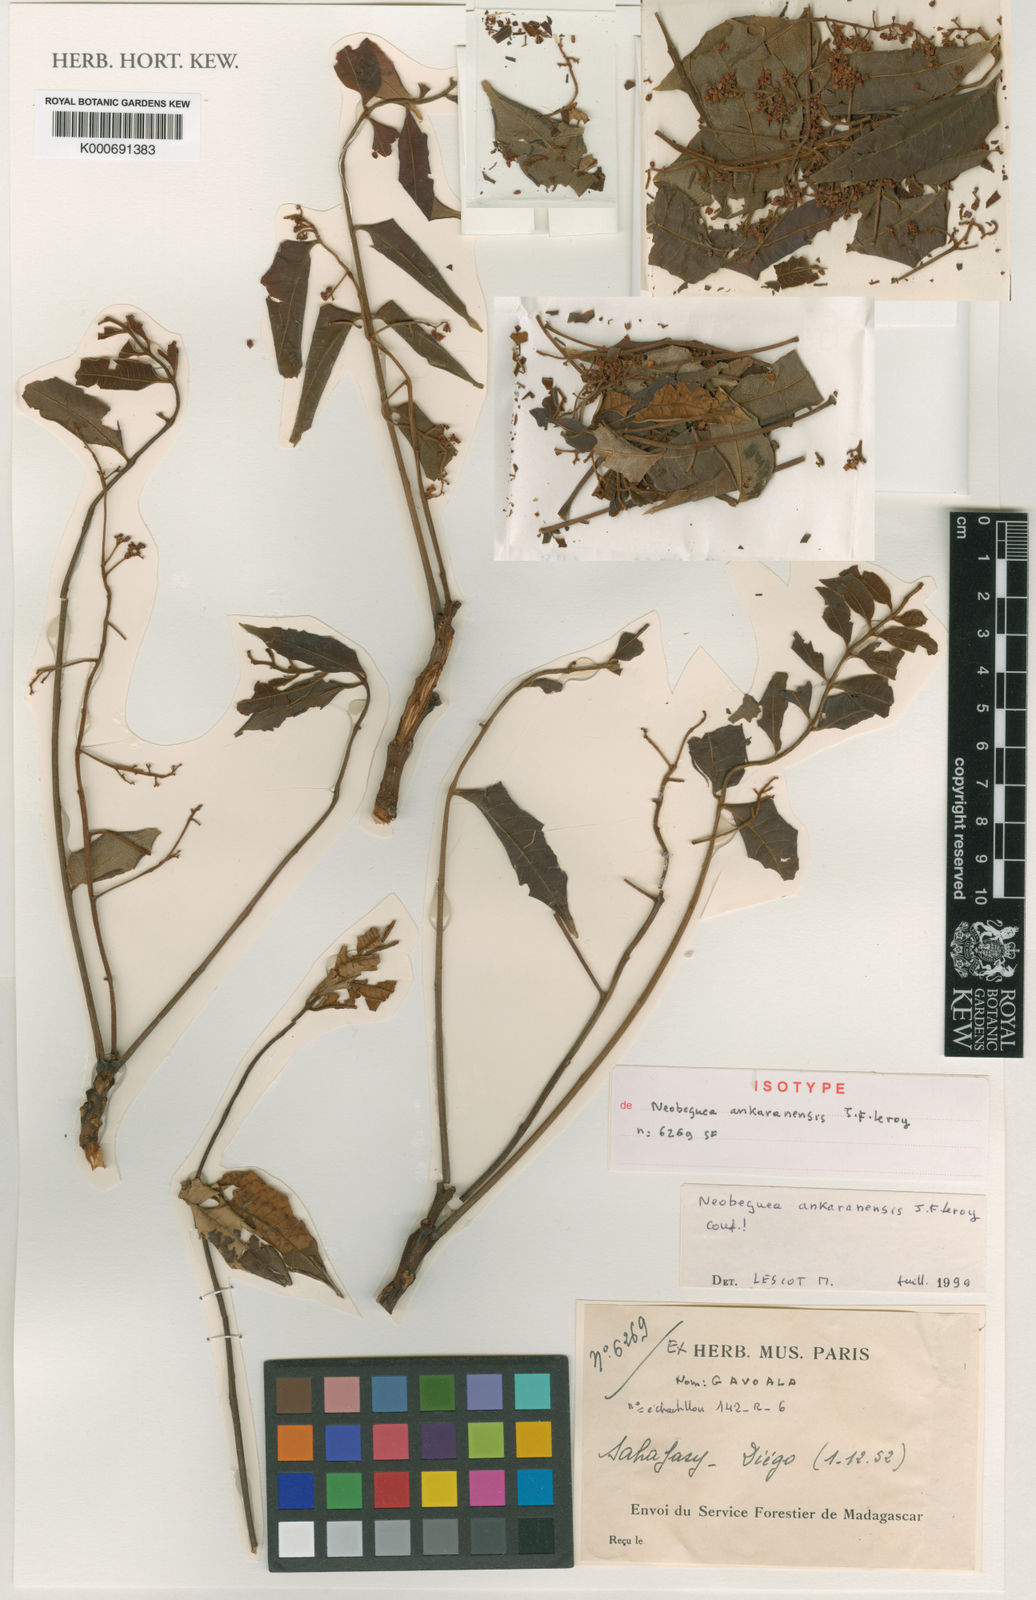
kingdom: Plantae
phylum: Tracheophyta
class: Magnoliopsida
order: Sapindales
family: Meliaceae
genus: Neobeguea
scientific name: Neobeguea ankaranensis
